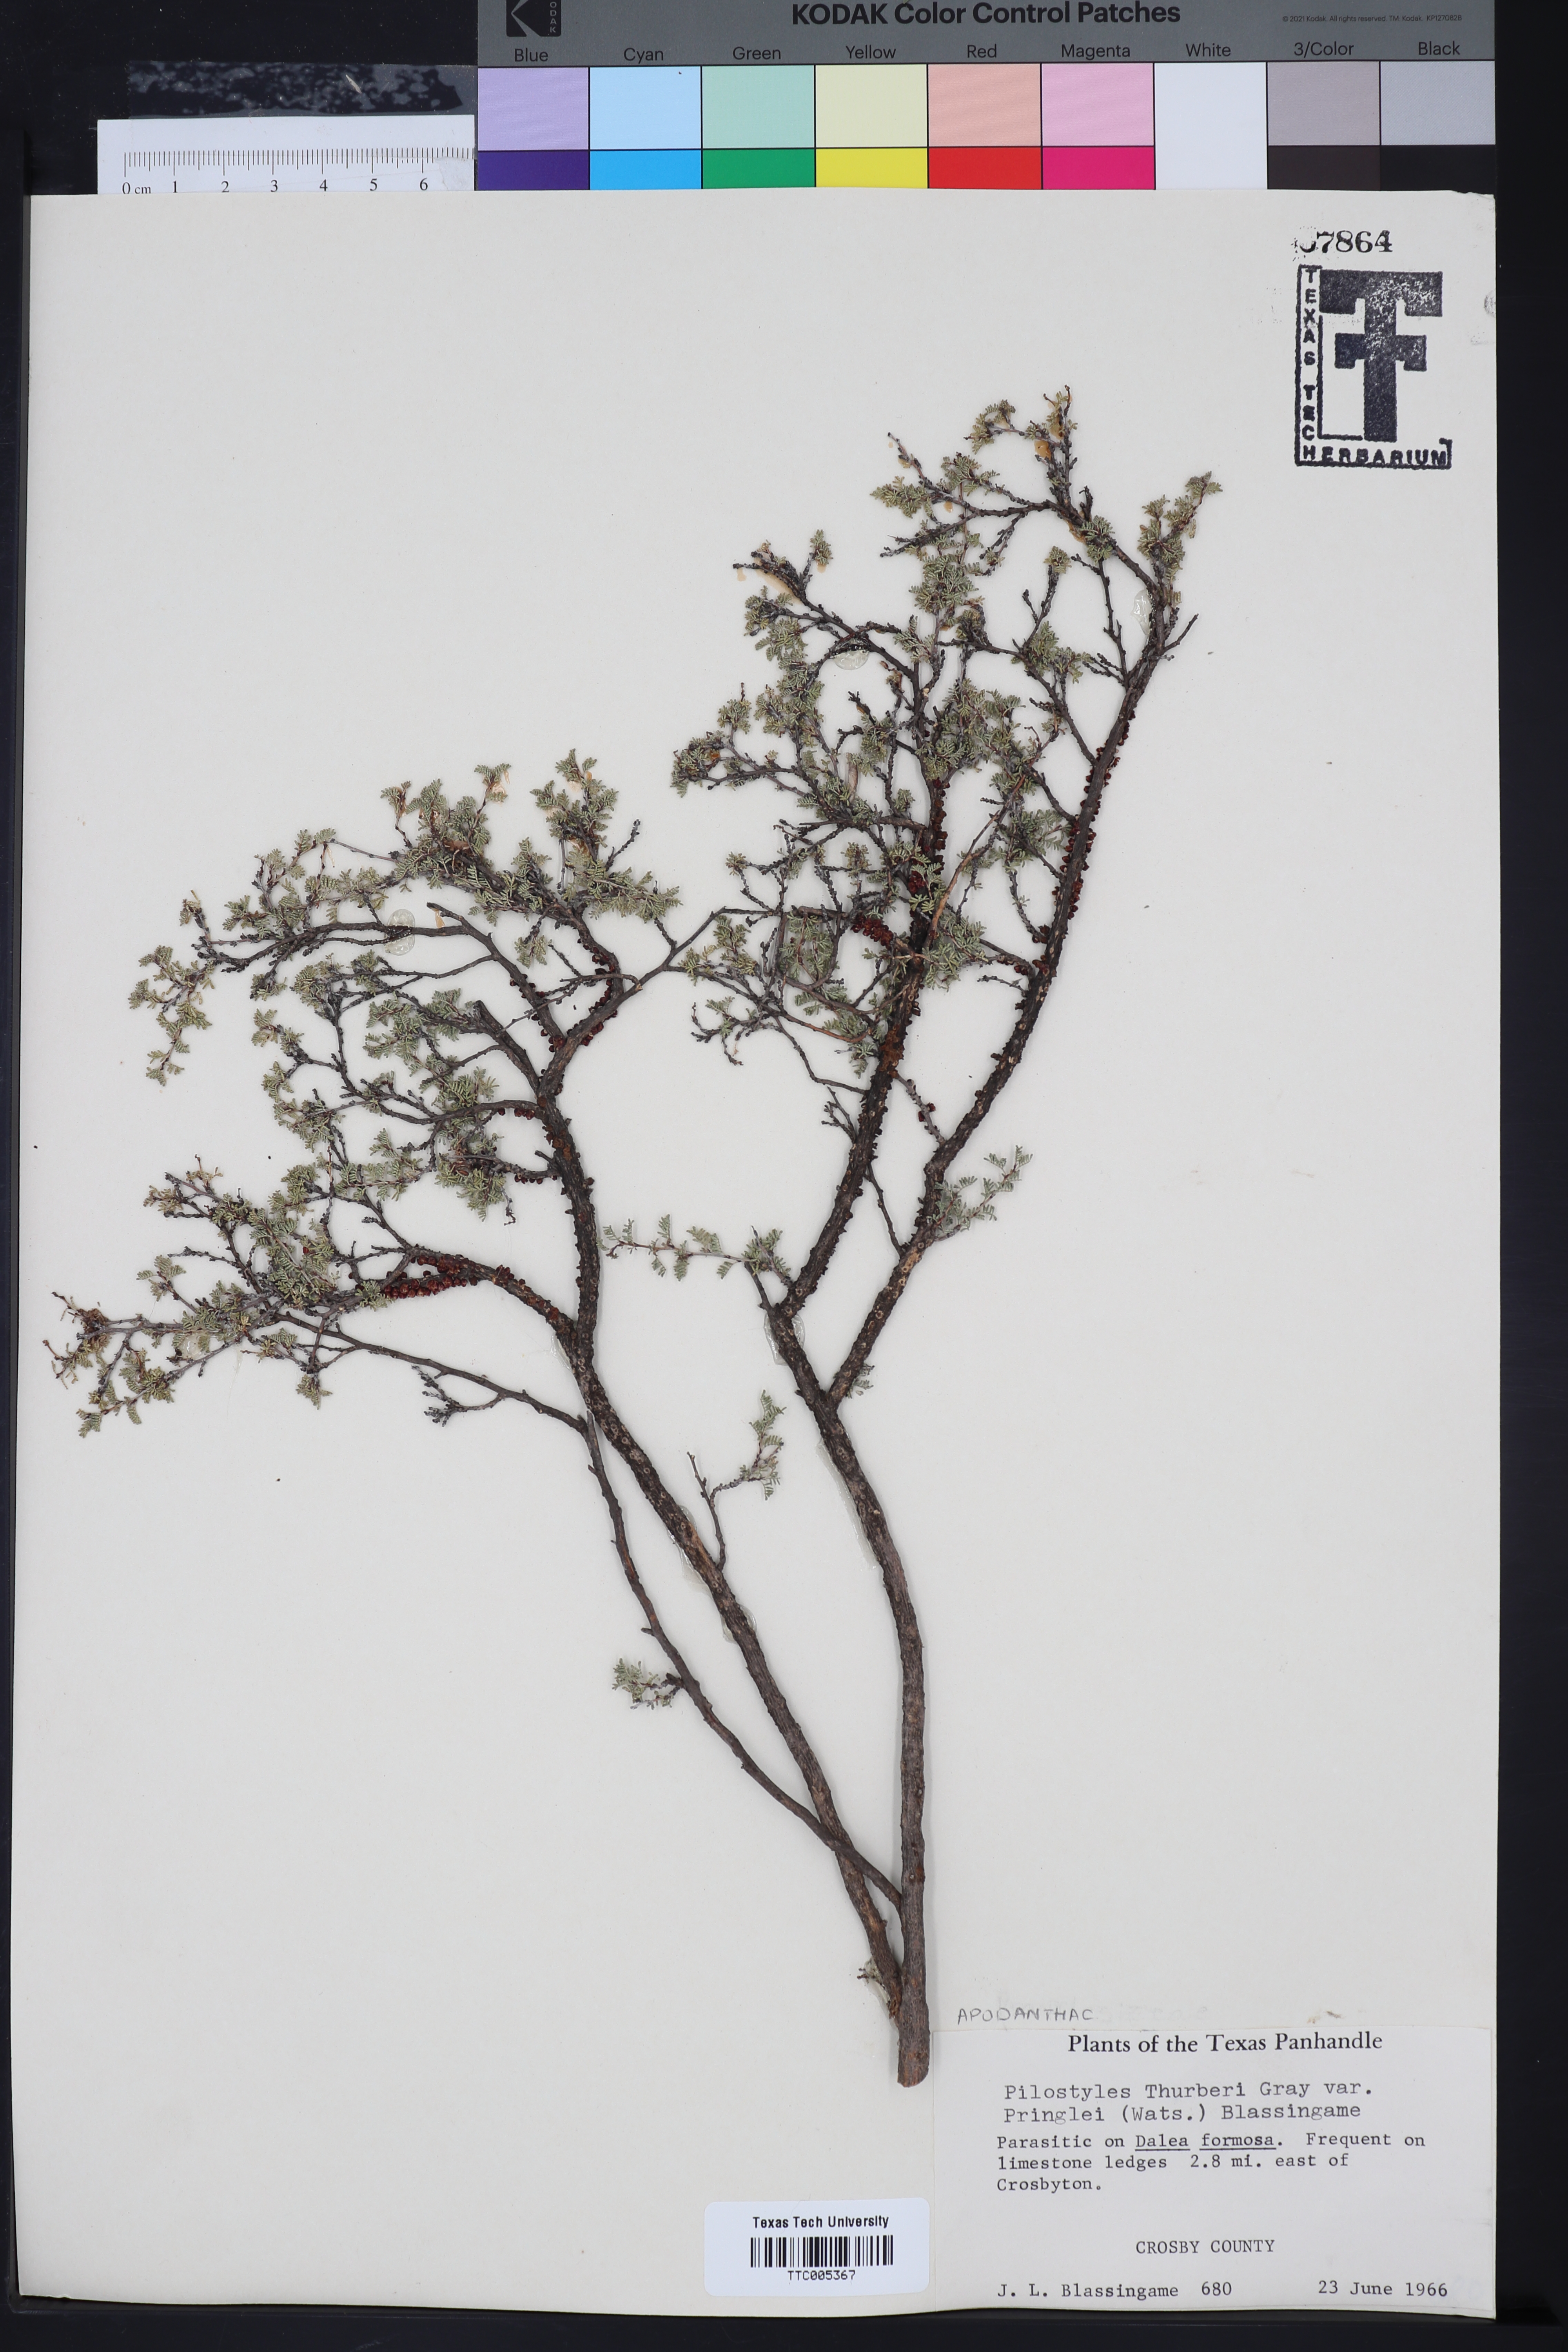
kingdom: Plantae
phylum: Tracheophyta
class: Magnoliopsida
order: Cucurbitales
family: Apodanthaceae
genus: Pilostyles
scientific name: Pilostyles thurberi
